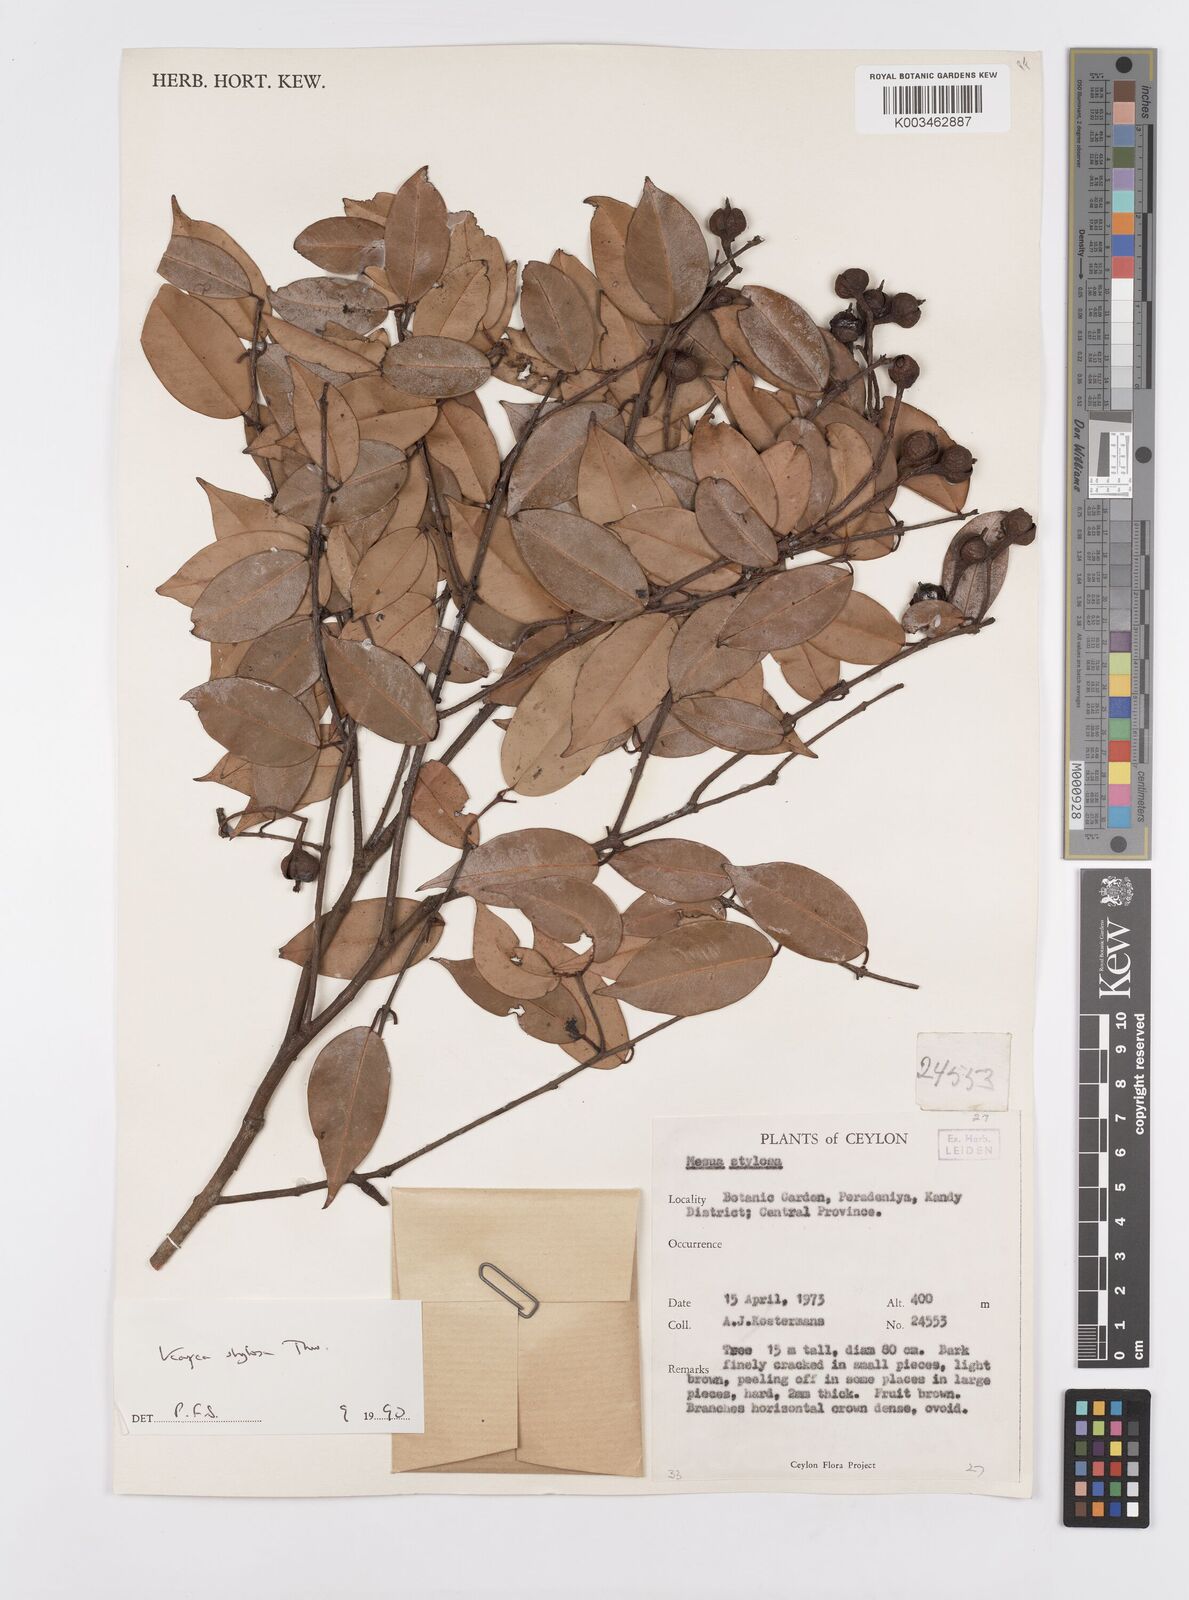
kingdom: Plantae
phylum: Tracheophyta
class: Magnoliopsida
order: Malpighiales
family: Calophyllaceae
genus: Kayea
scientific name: Kayea stylosa
